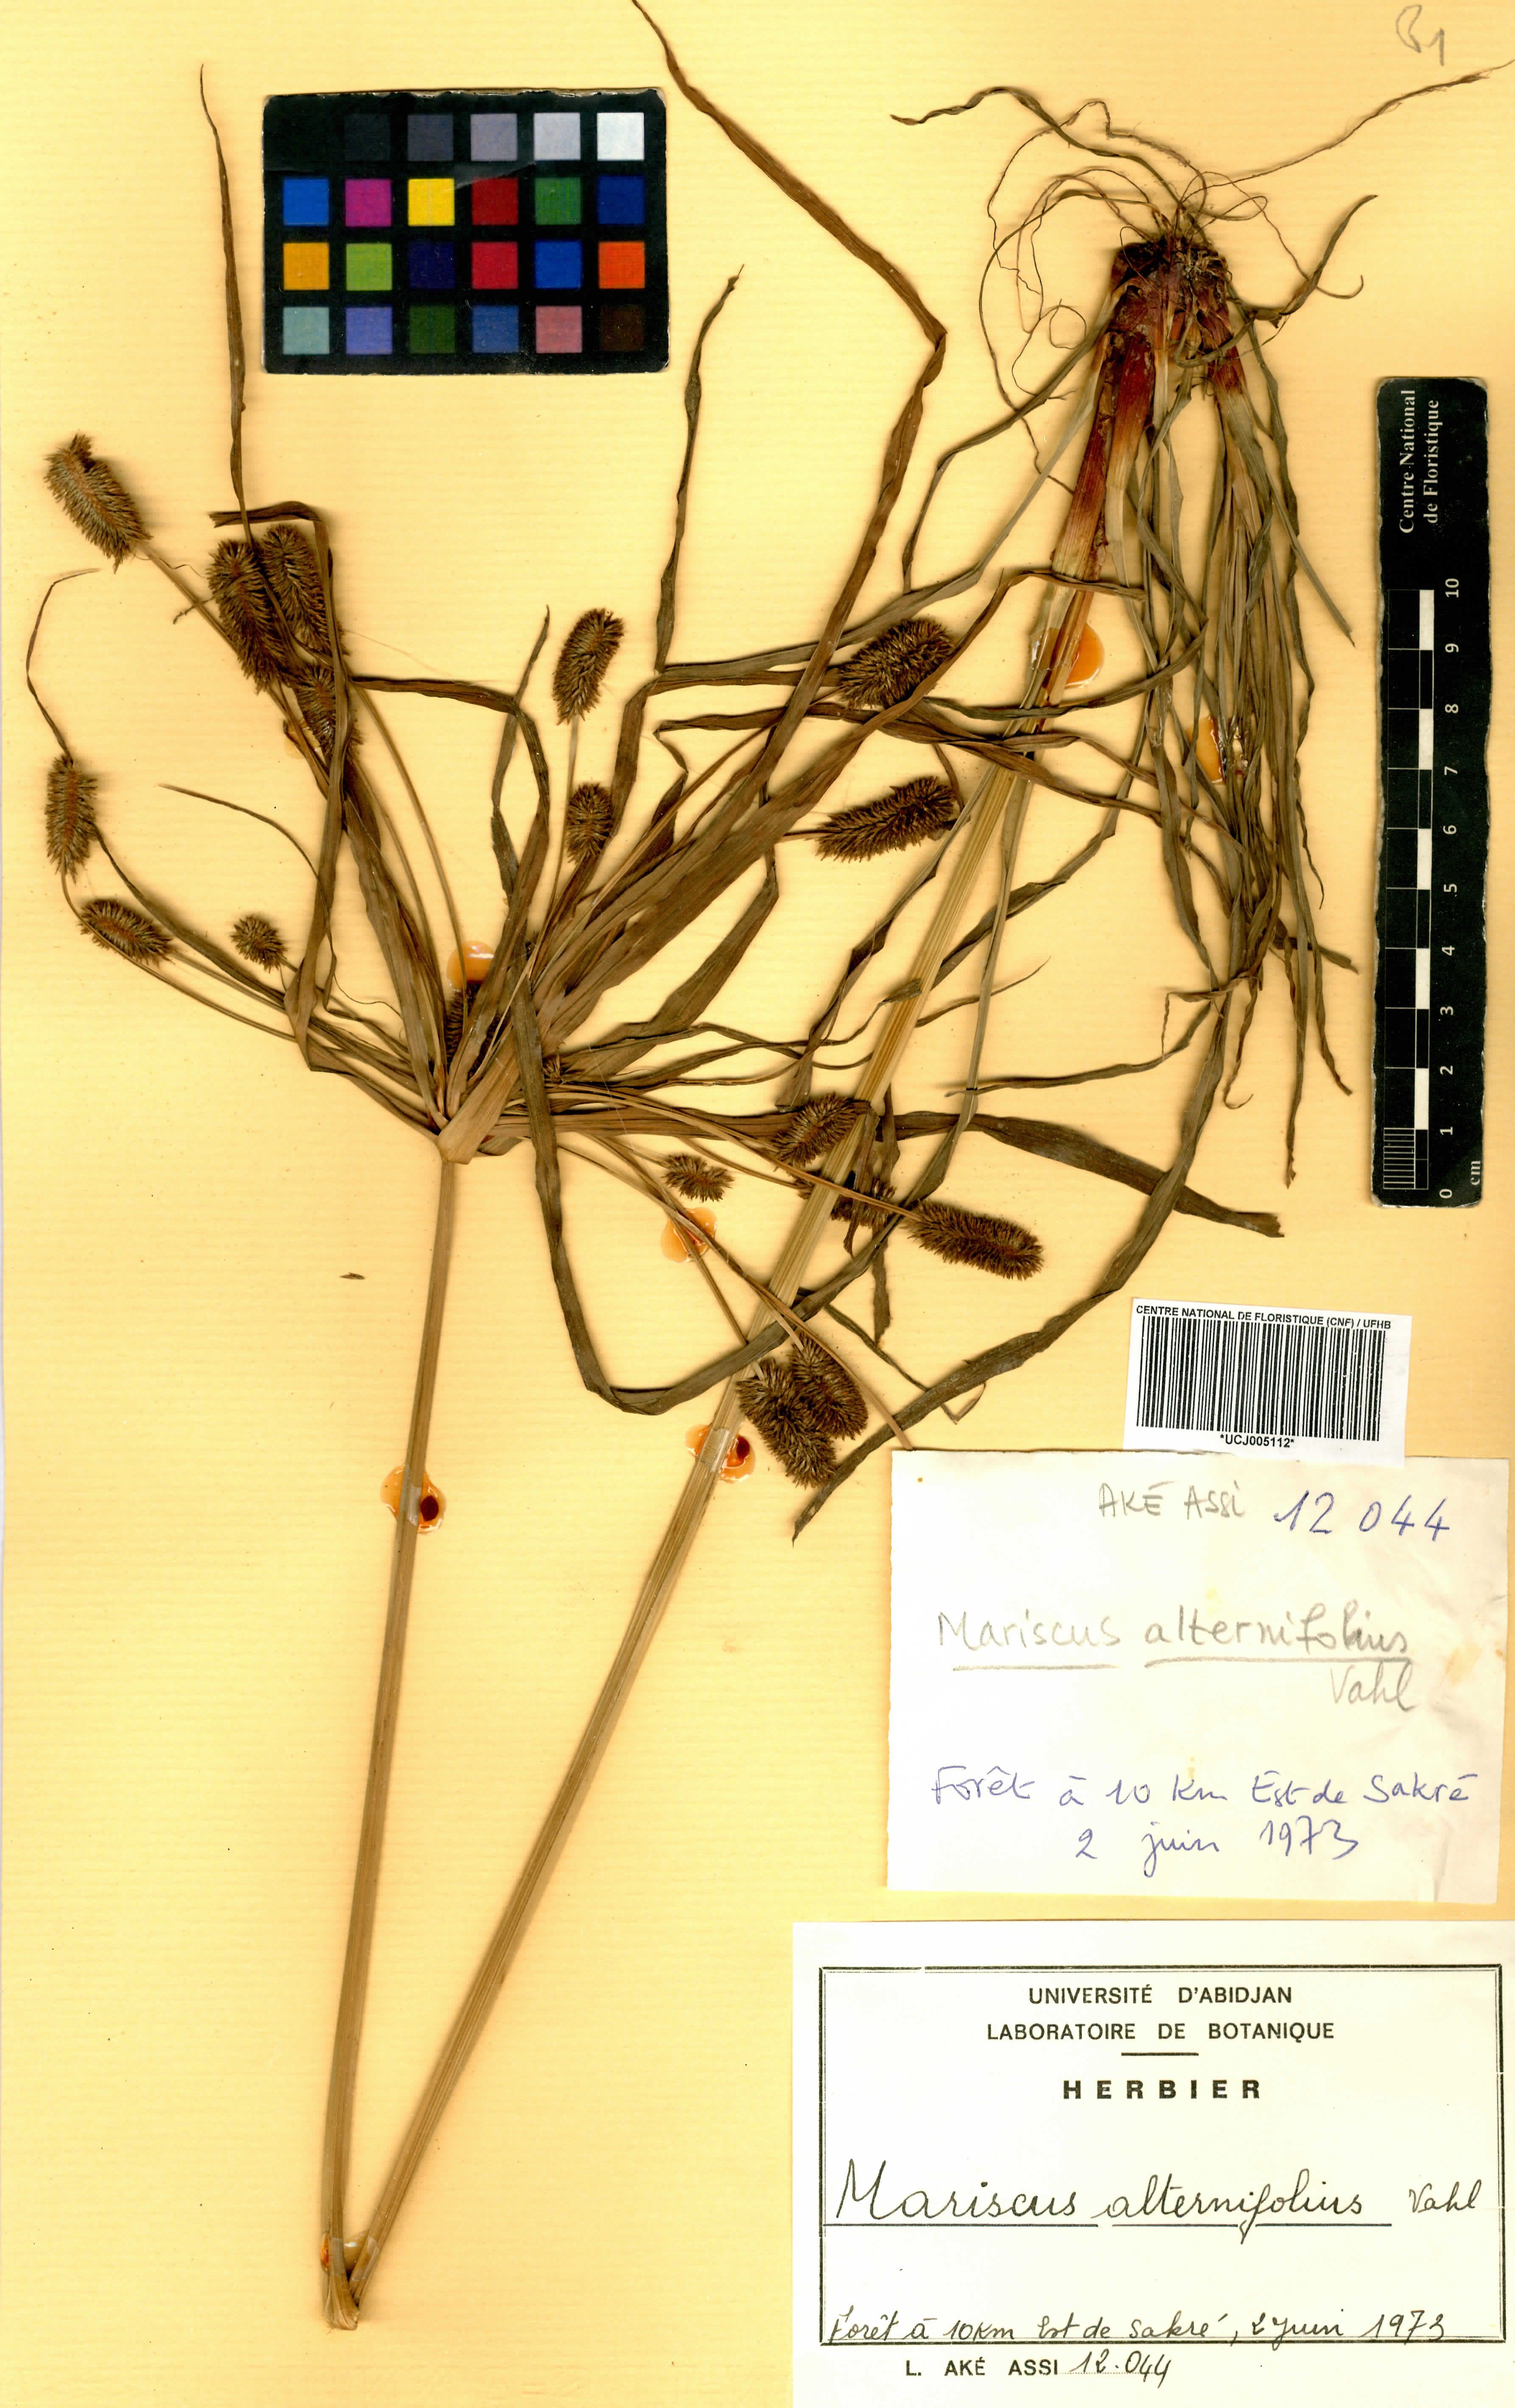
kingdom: Plantae
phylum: Tracheophyta
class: Liliopsida
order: Poales
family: Cyperaceae
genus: Cyperus
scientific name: Cyperus cyperoides
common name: Pacific island flat sedge
